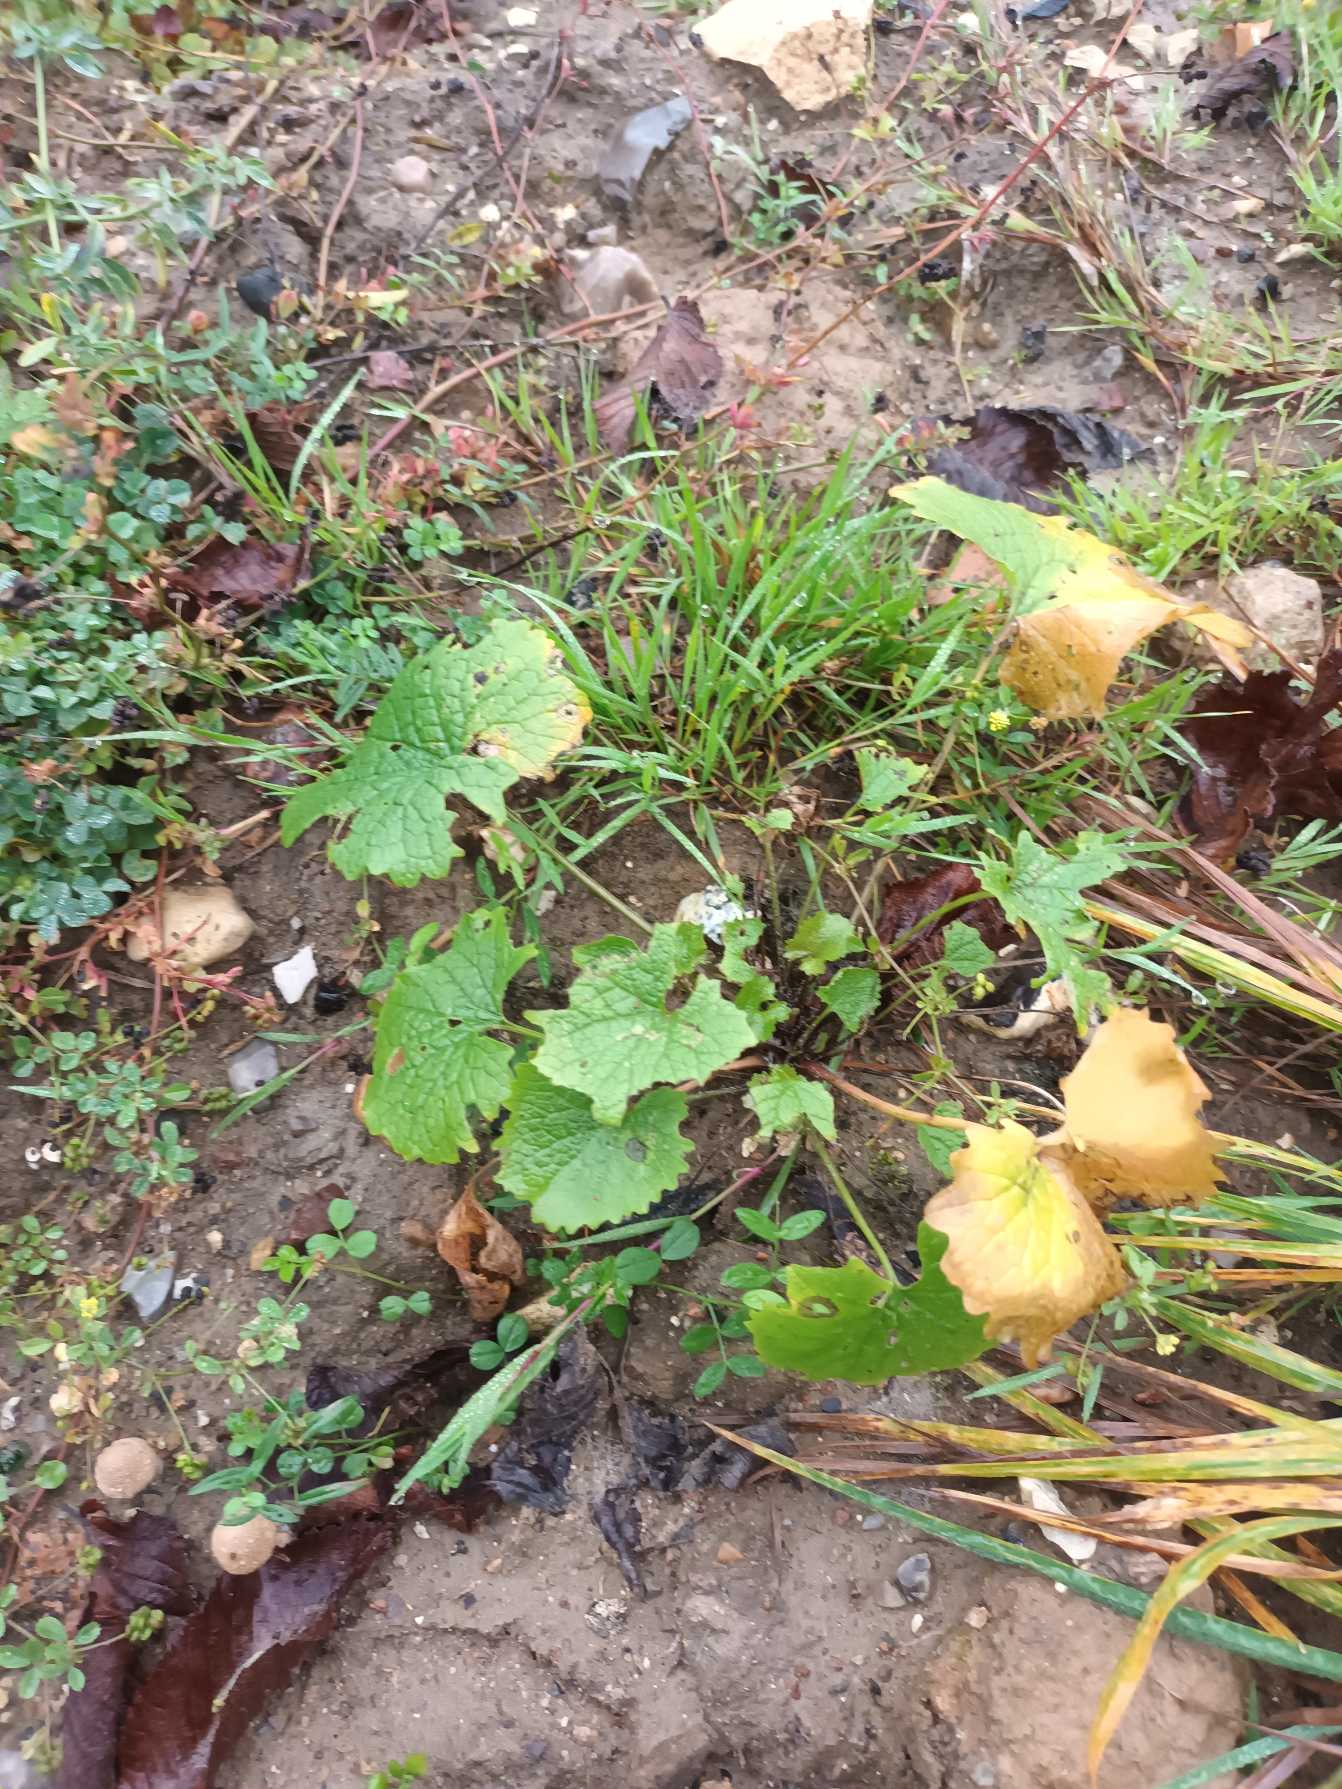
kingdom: Plantae
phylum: Tracheophyta
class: Magnoliopsida
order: Brassicales
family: Brassicaceae
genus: Alliaria
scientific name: Alliaria petiolata
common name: Løgkarse
